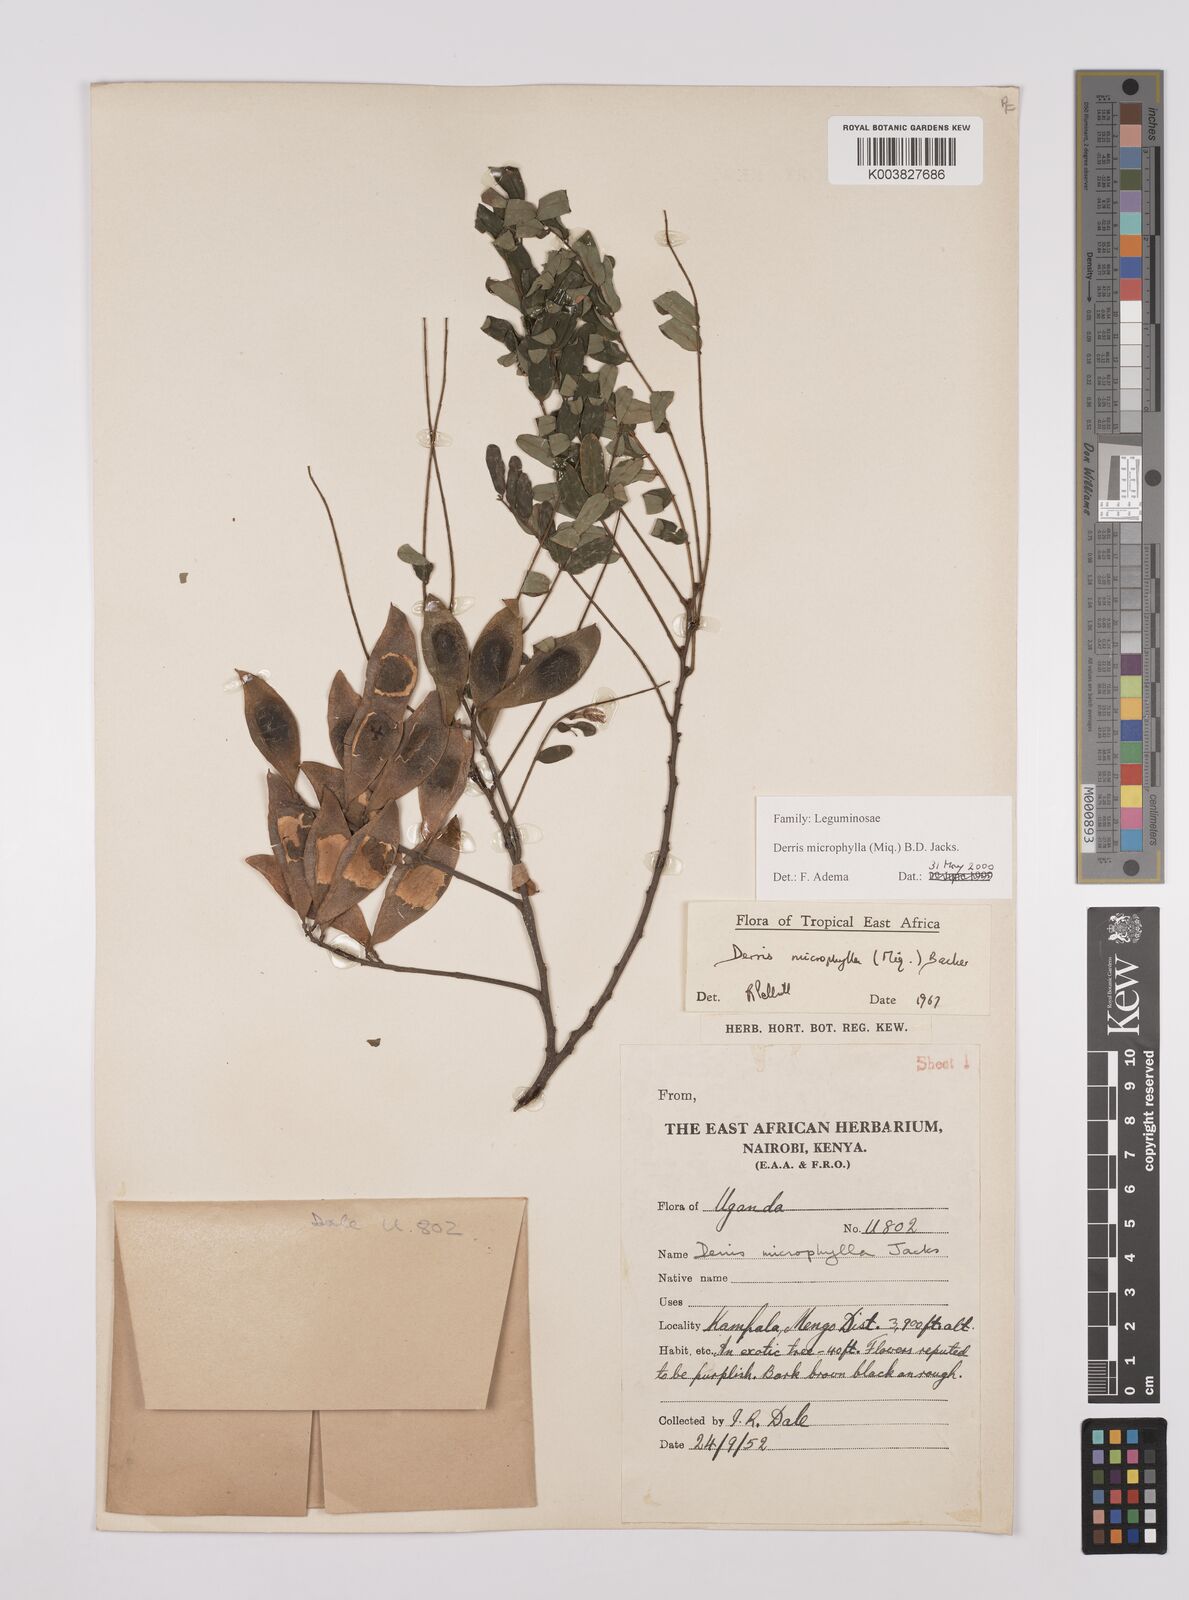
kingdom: Plantae
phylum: Tracheophyta
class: Magnoliopsida
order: Fabales
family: Fabaceae
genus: Brachypterum
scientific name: Brachypterum microphyllum
